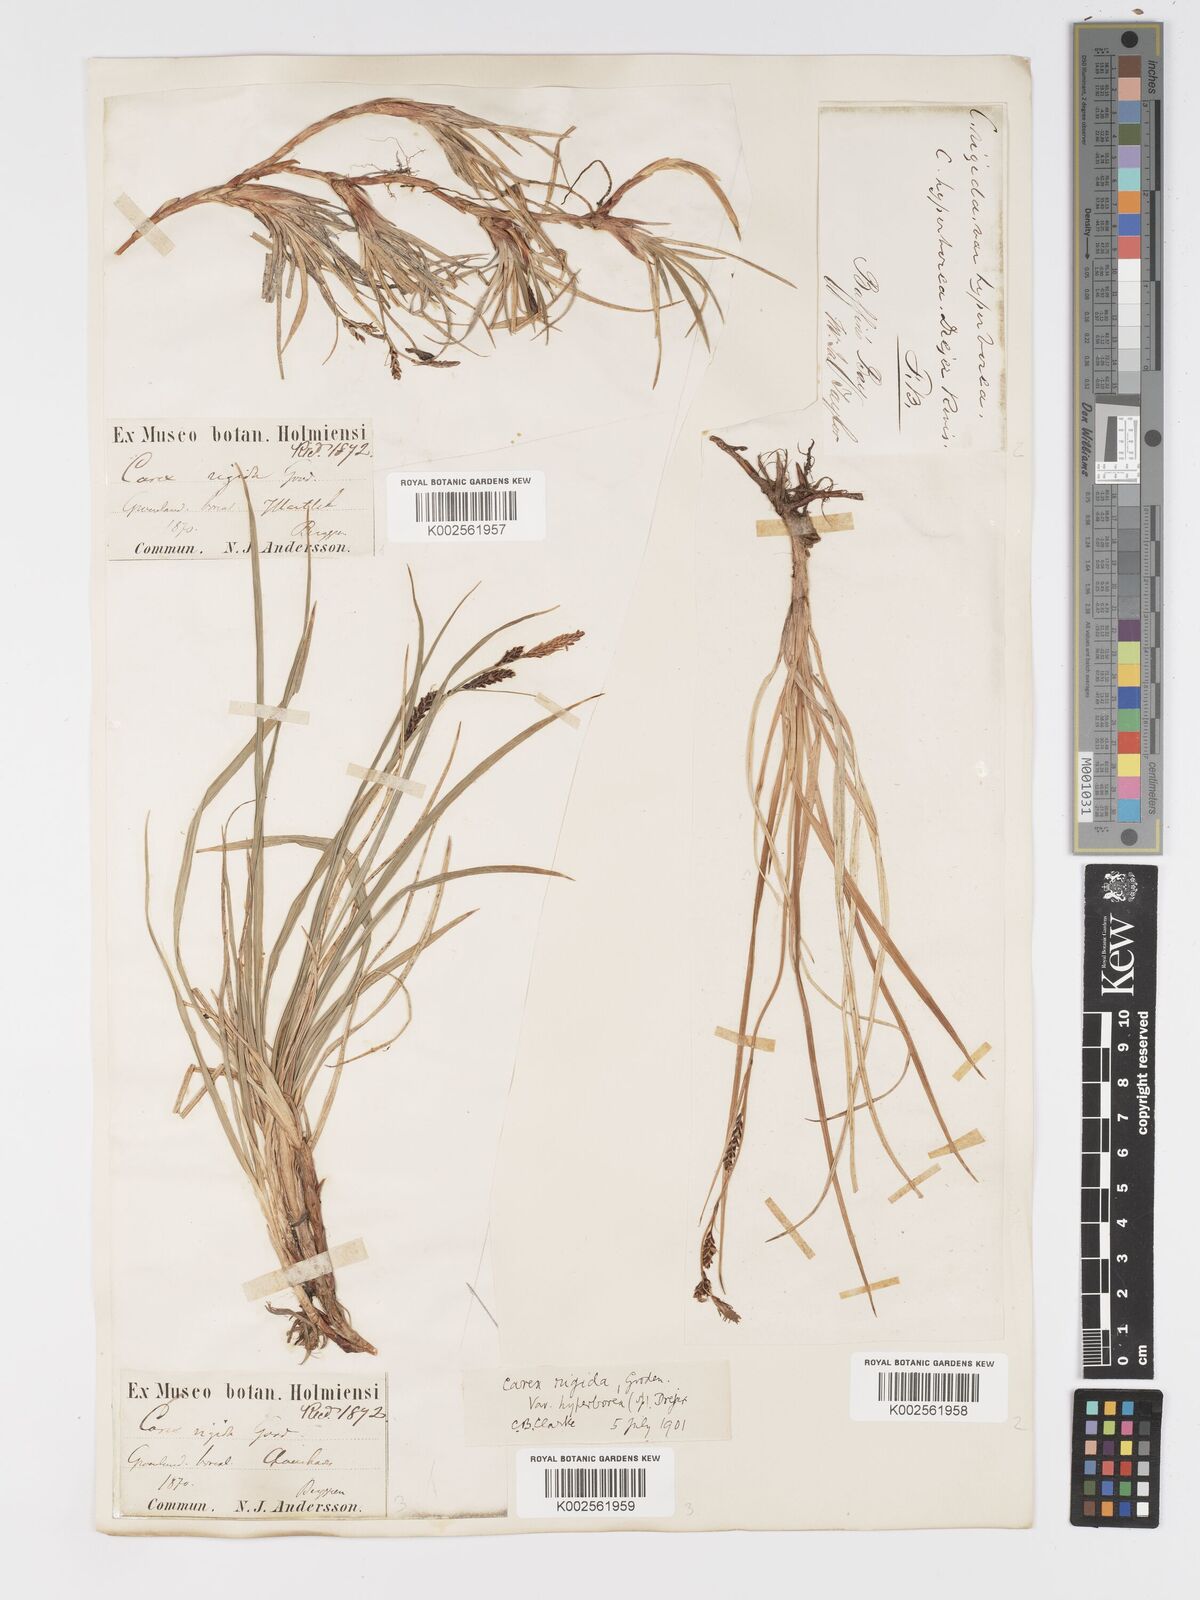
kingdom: Plantae
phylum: Tracheophyta
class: Liliopsida
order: Poales
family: Cyperaceae
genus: Carex
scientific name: Carex bigelowii
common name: Stiff sedge
